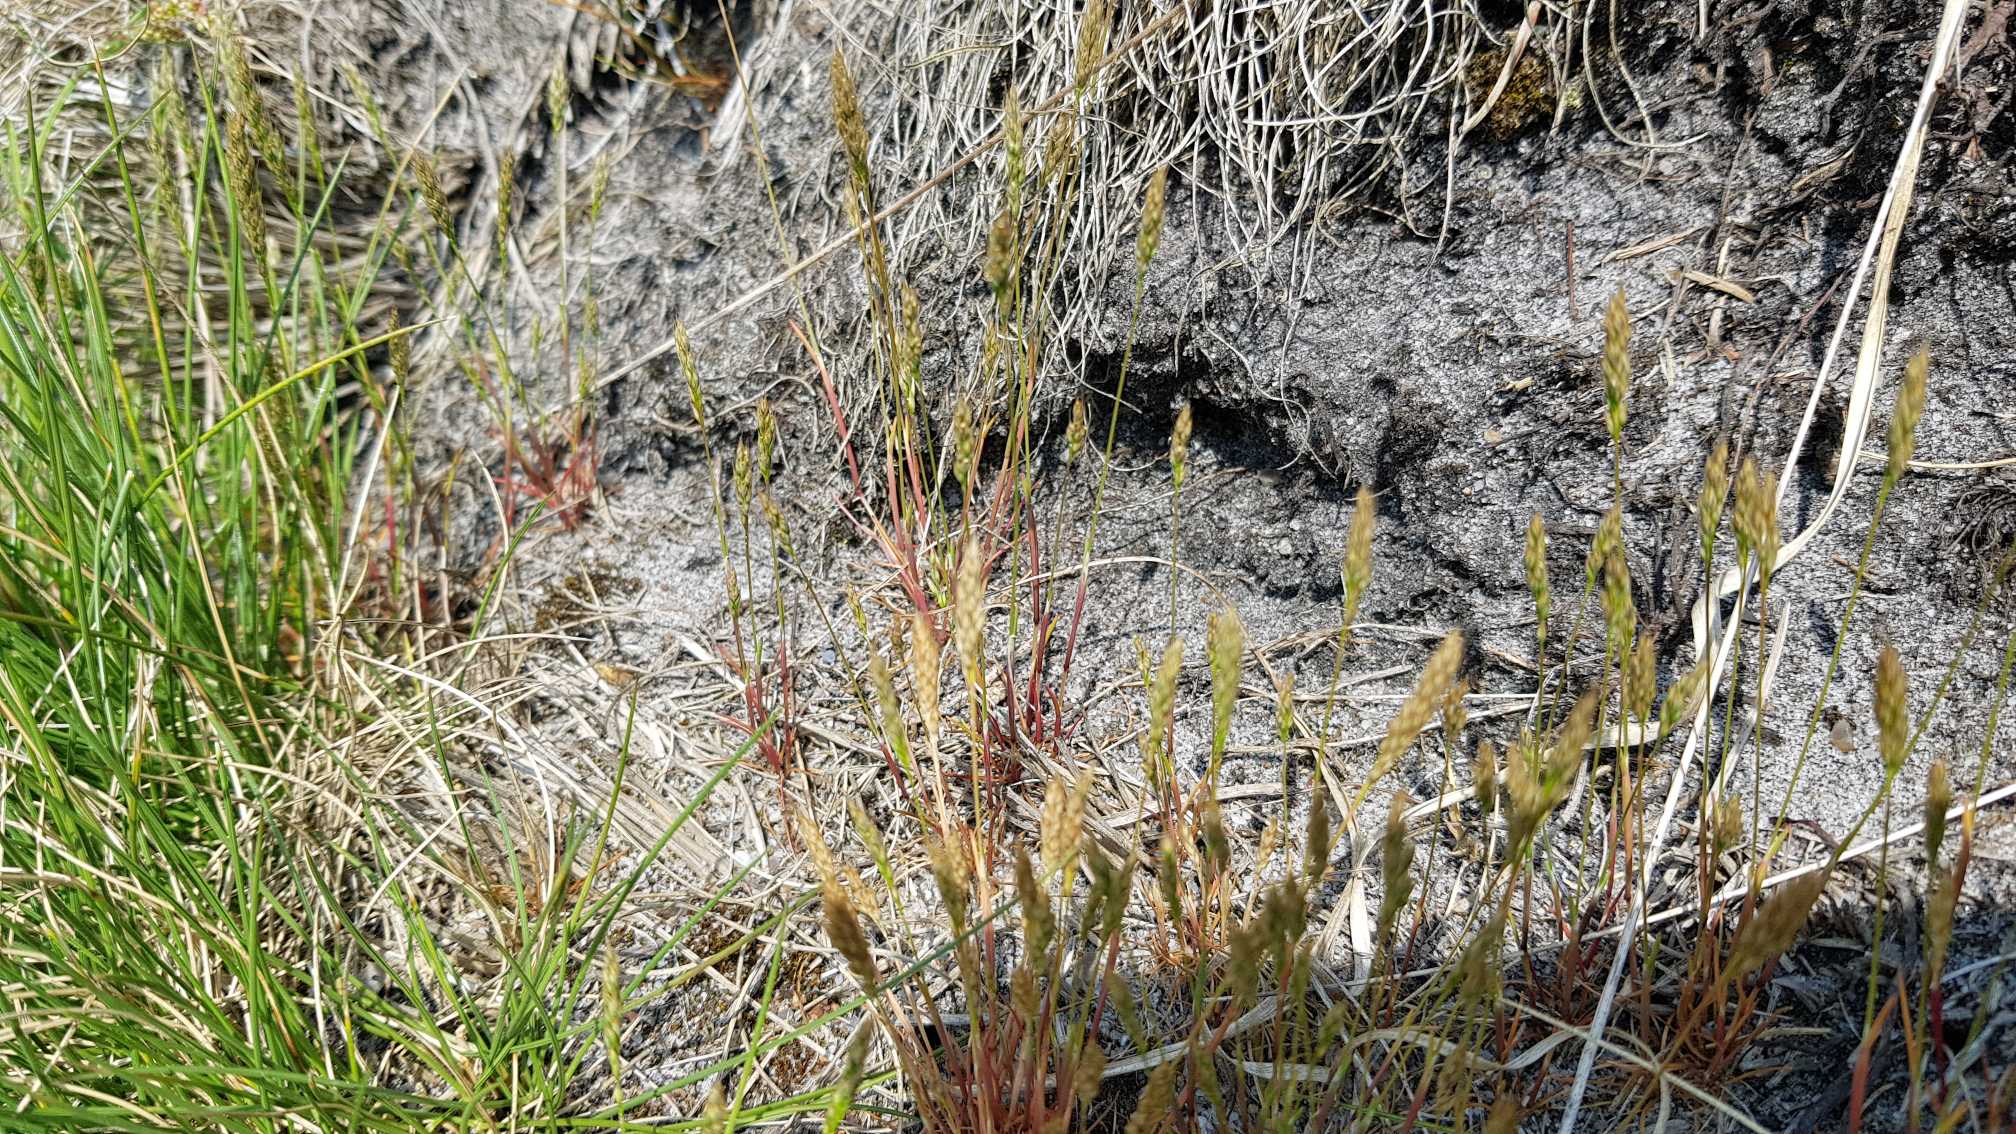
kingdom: Plantae
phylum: Tracheophyta
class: Liliopsida
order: Poales
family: Poaceae
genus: Aira
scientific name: Aira praecox
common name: Tidlig dværgbunke
